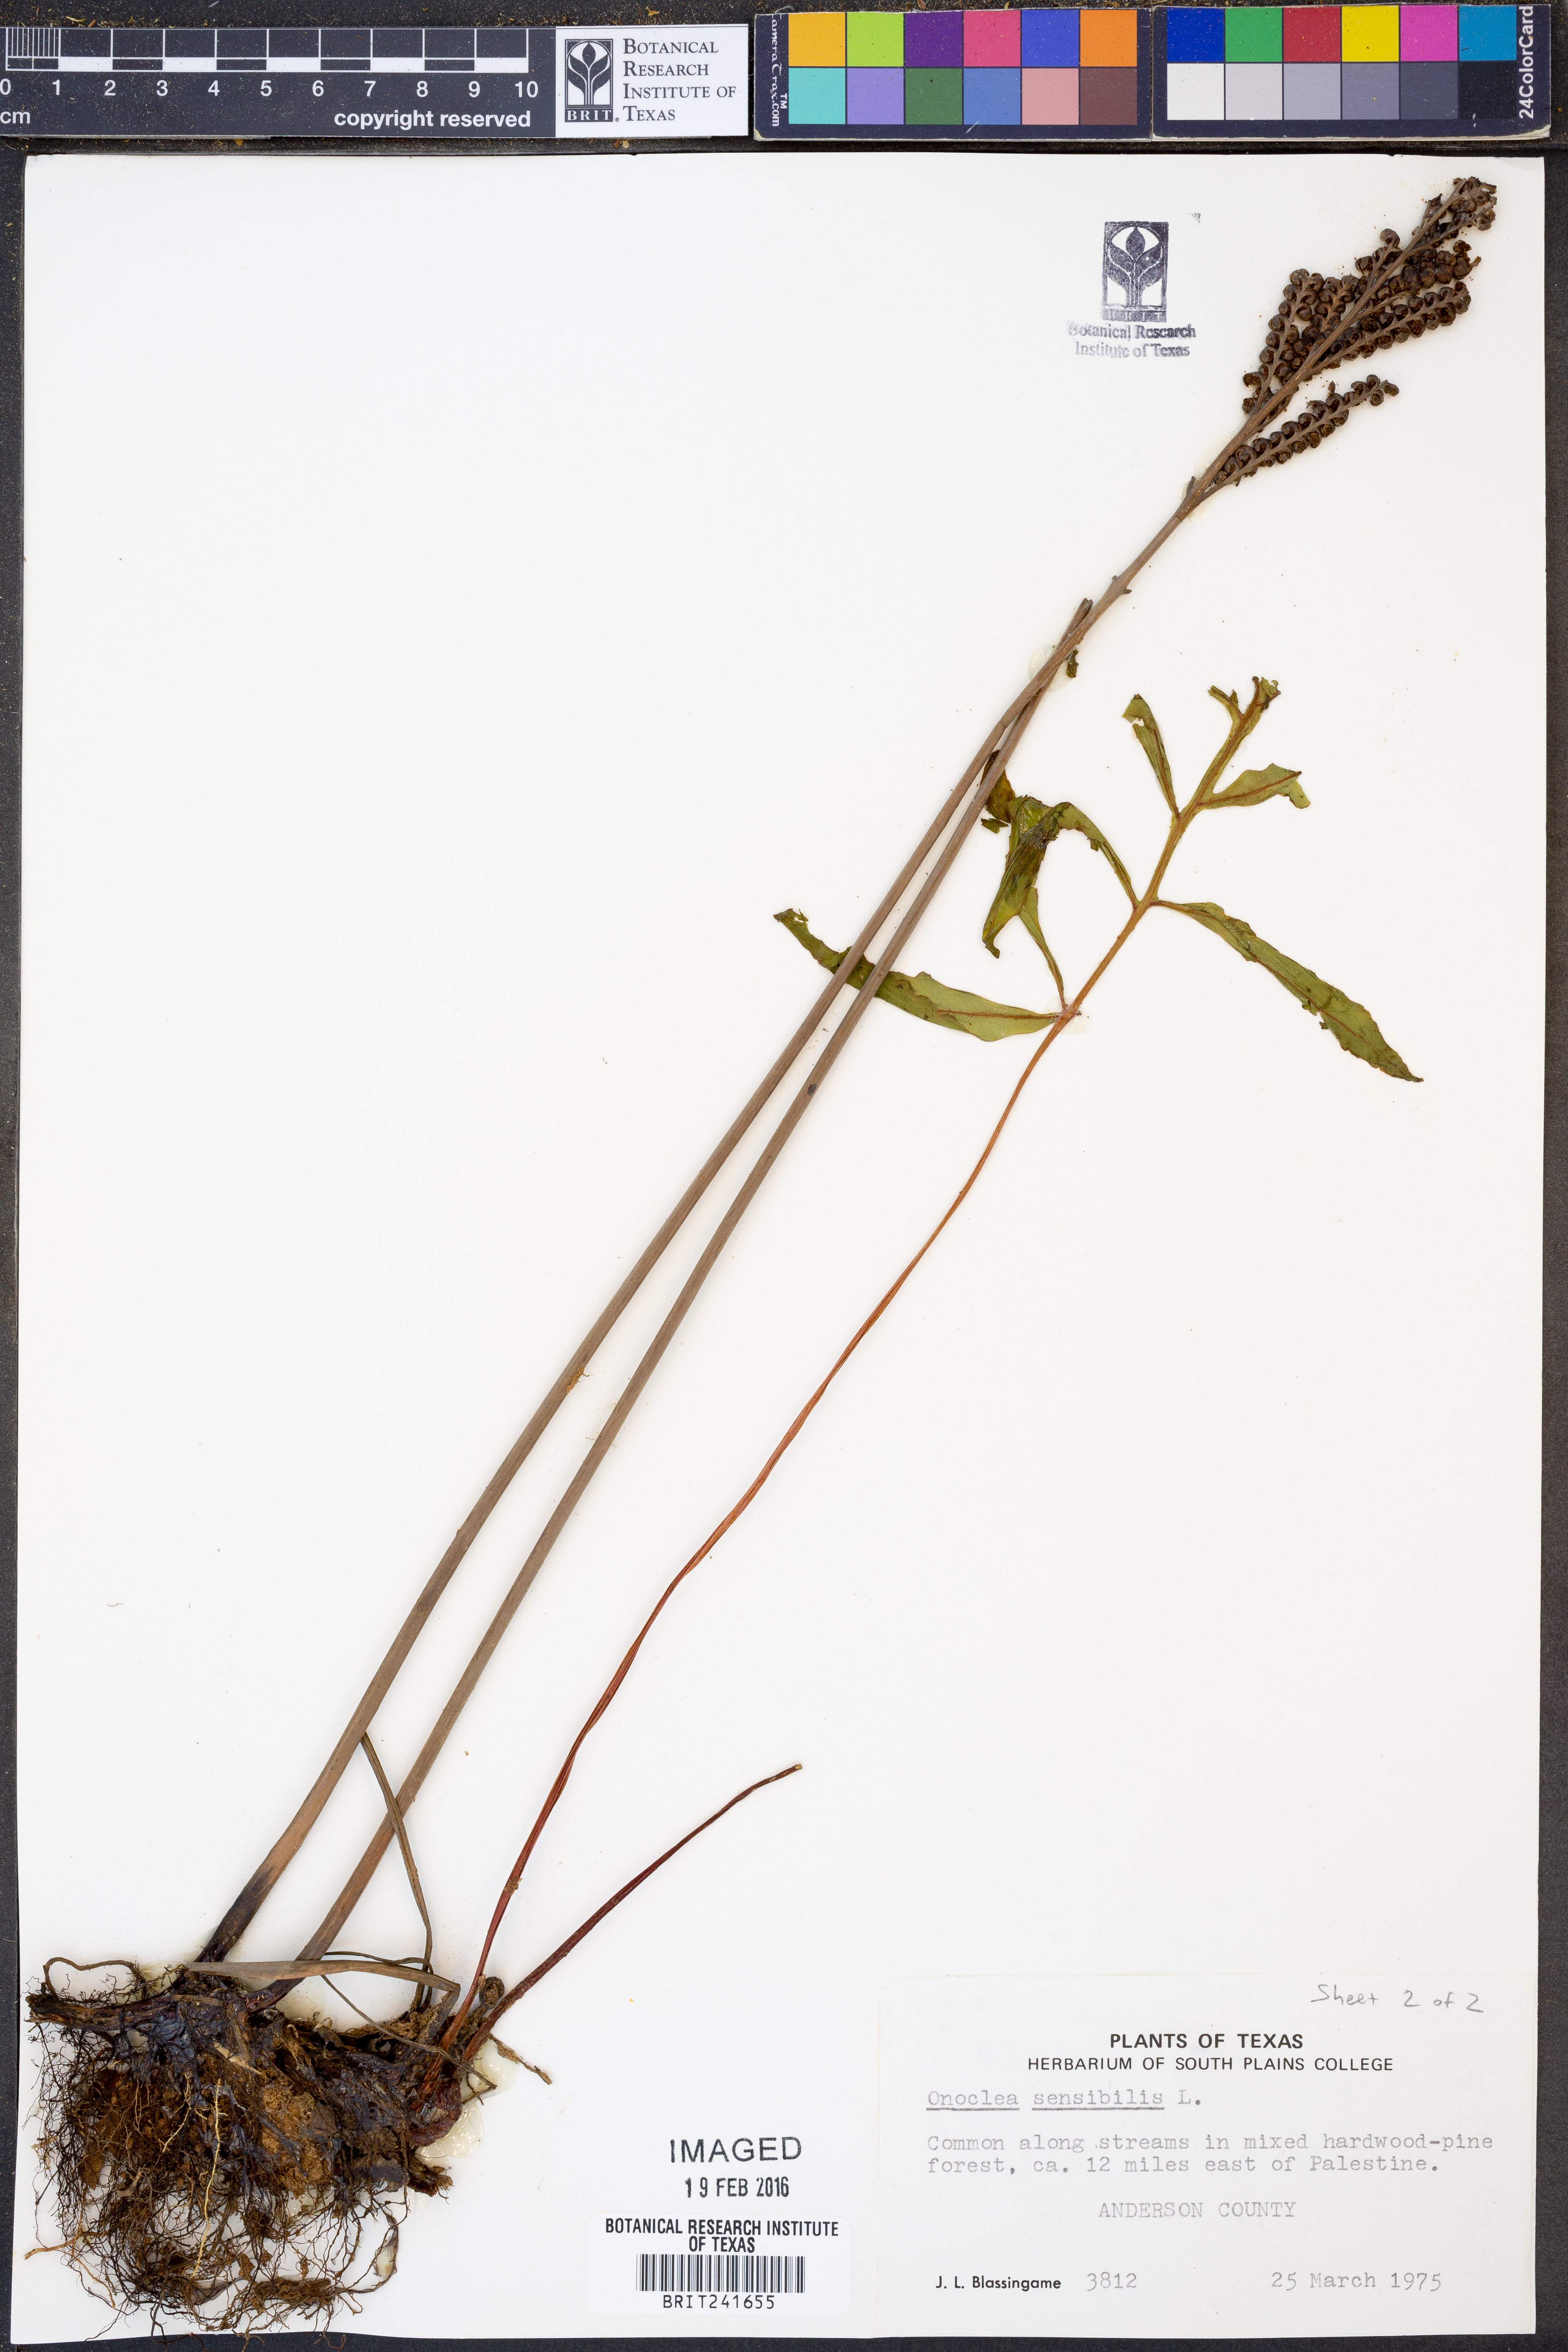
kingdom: Plantae
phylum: Tracheophyta
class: Polypodiopsida
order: Polypodiales
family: Onocleaceae
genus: Onoclea
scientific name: Onoclea sensibilis
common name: Sensitive fern
